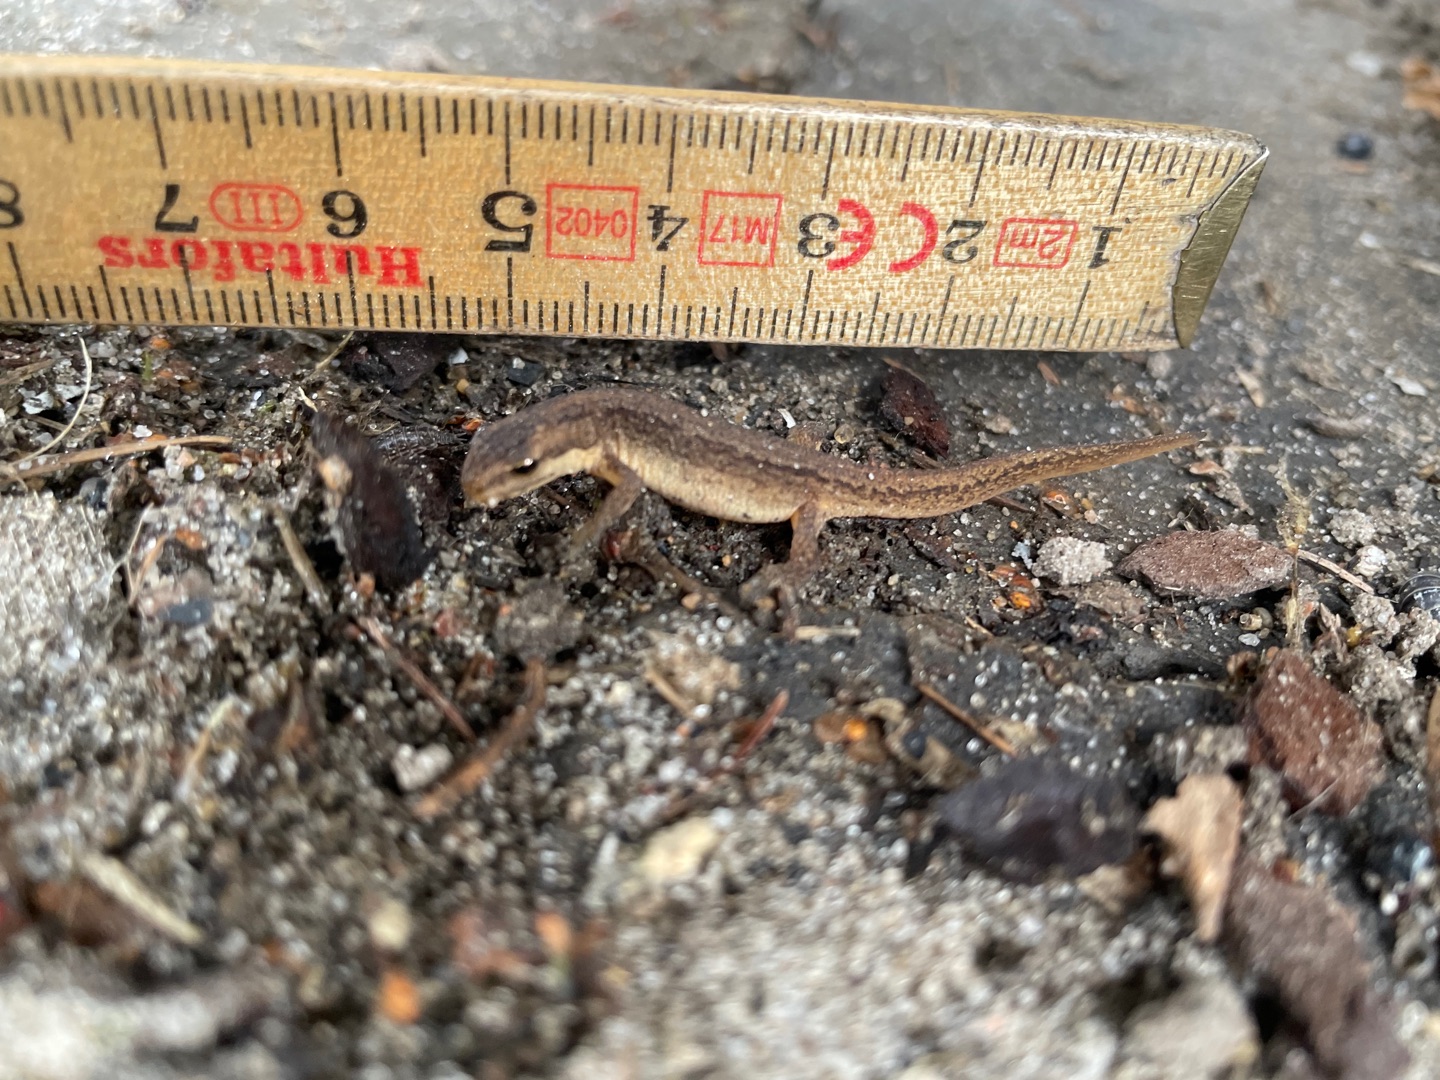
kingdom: Animalia
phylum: Chordata
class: Amphibia
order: Caudata
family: Salamandridae
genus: Lissotriton
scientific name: Lissotriton vulgaris
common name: Lille vandsalamander
